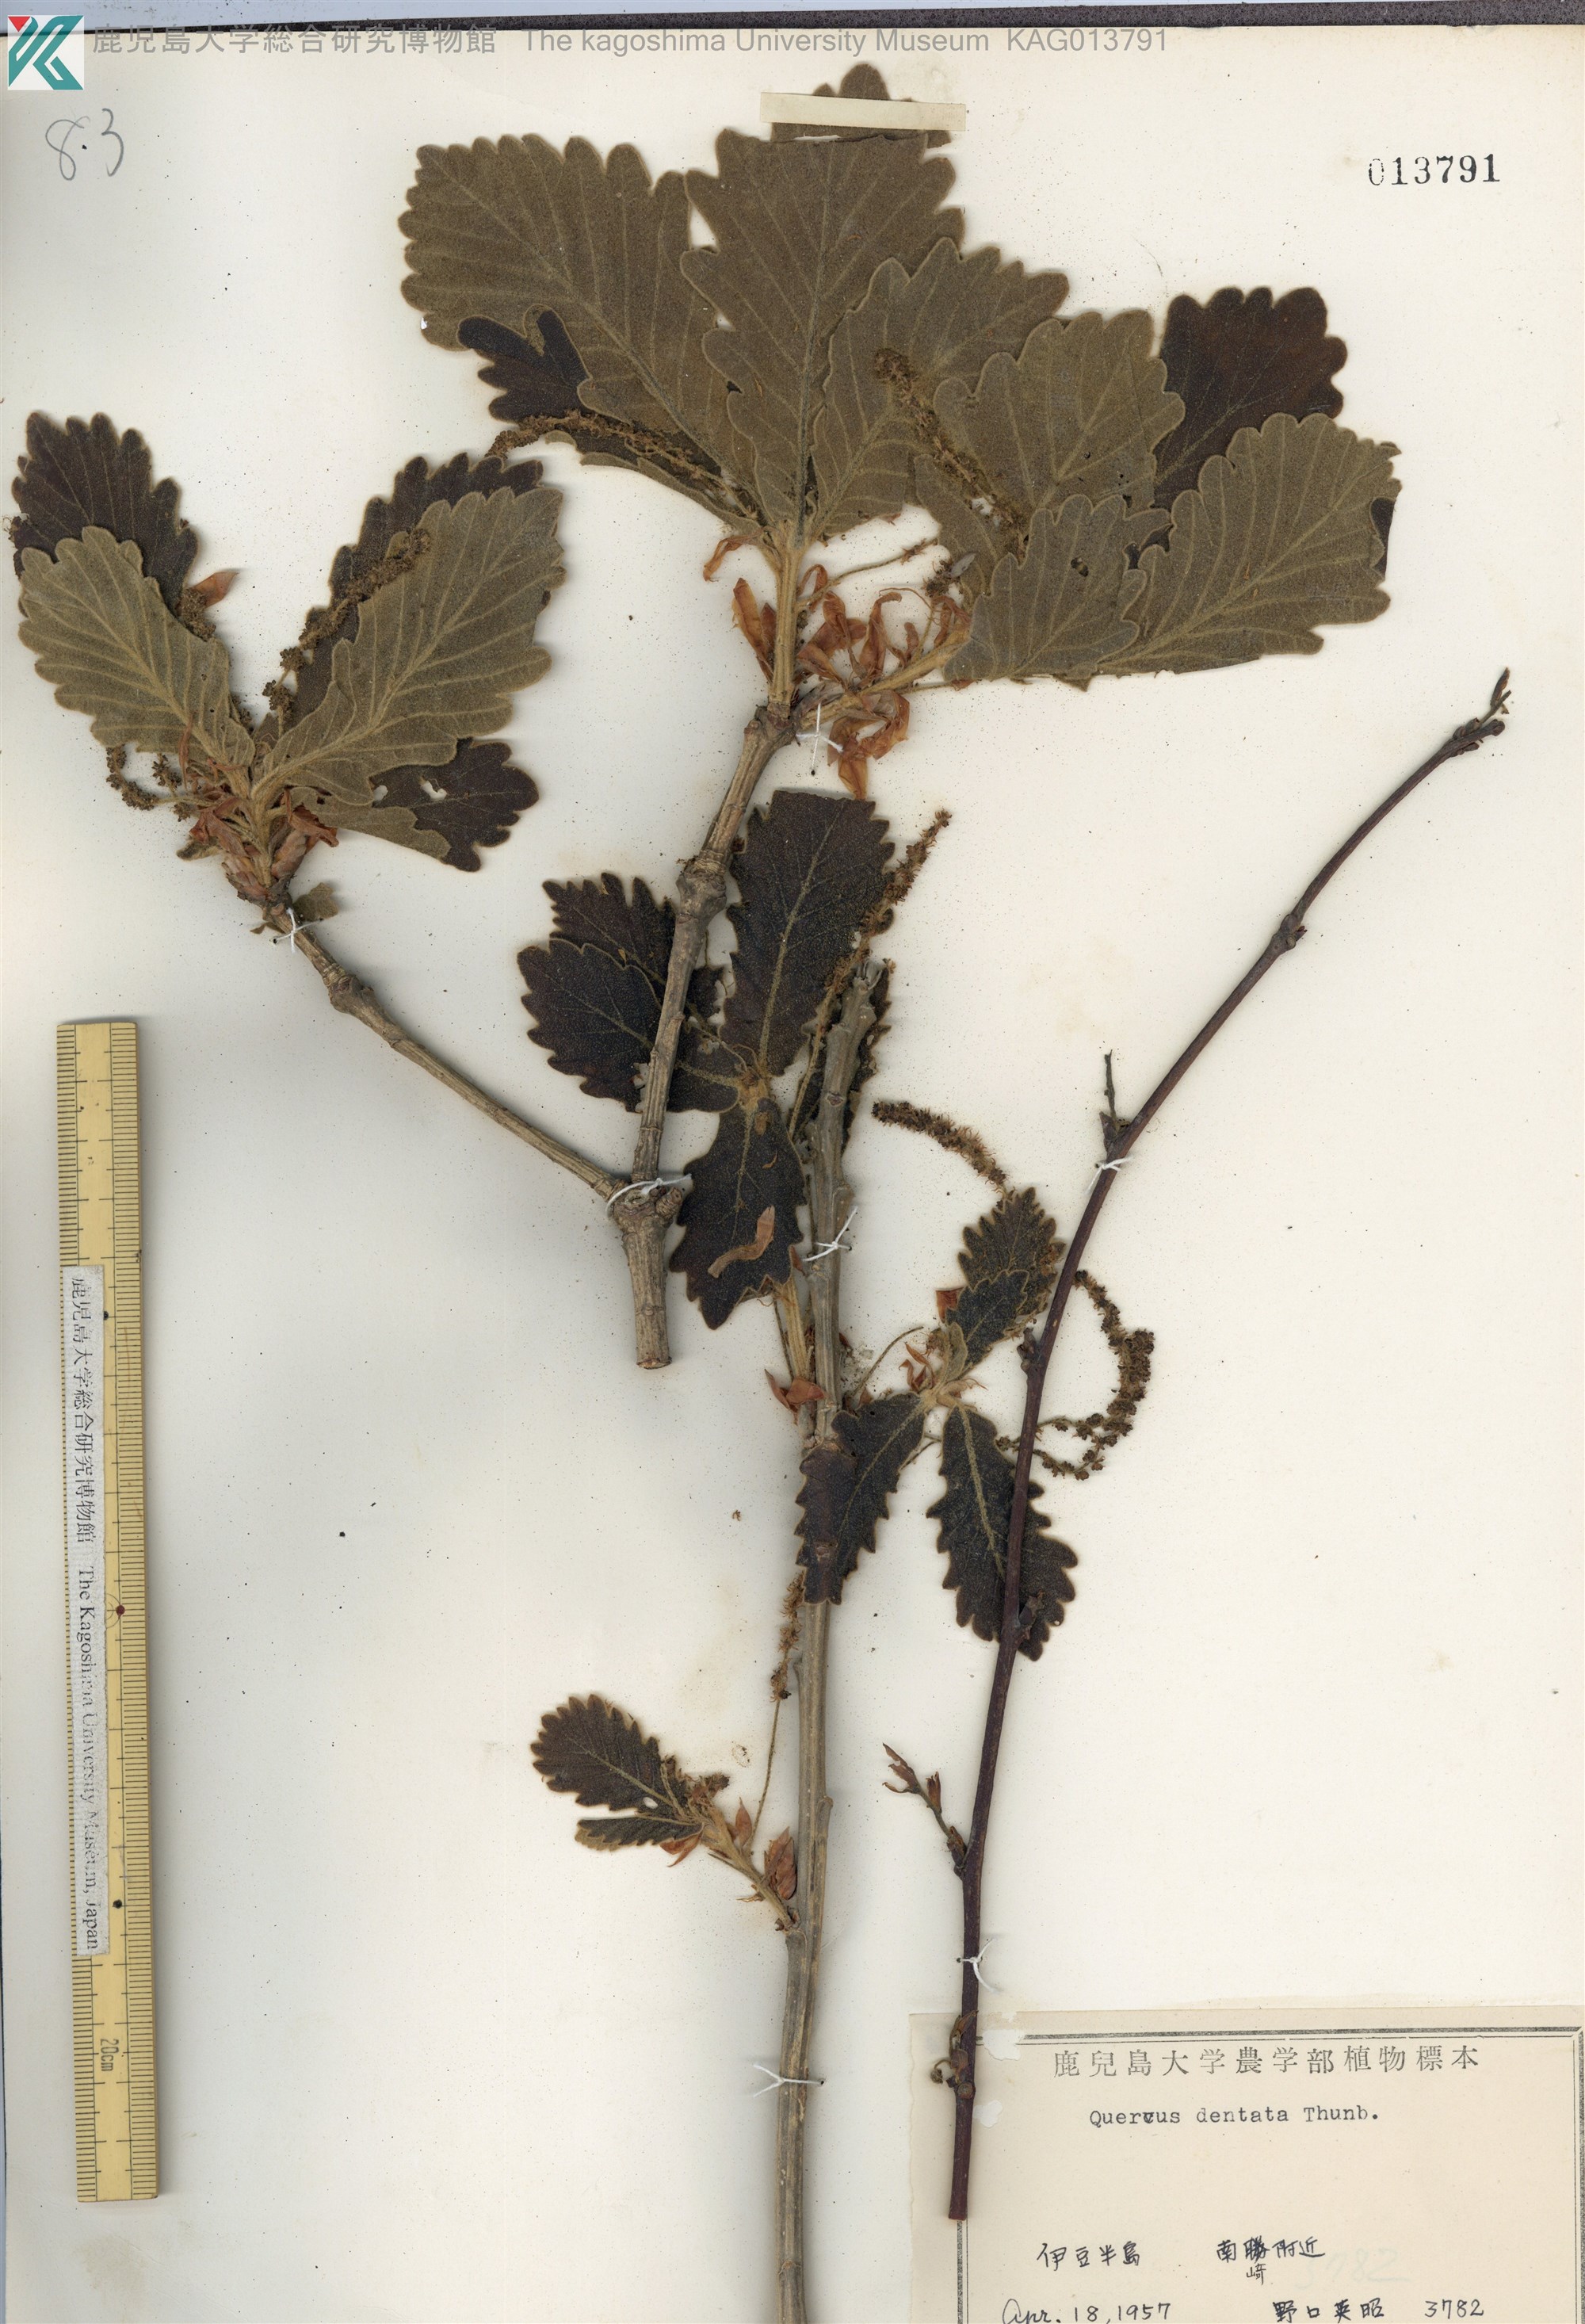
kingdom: Plantae
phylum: Tracheophyta
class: Magnoliopsida
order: Fagales
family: Fagaceae
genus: Quercus
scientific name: Quercus dentata
